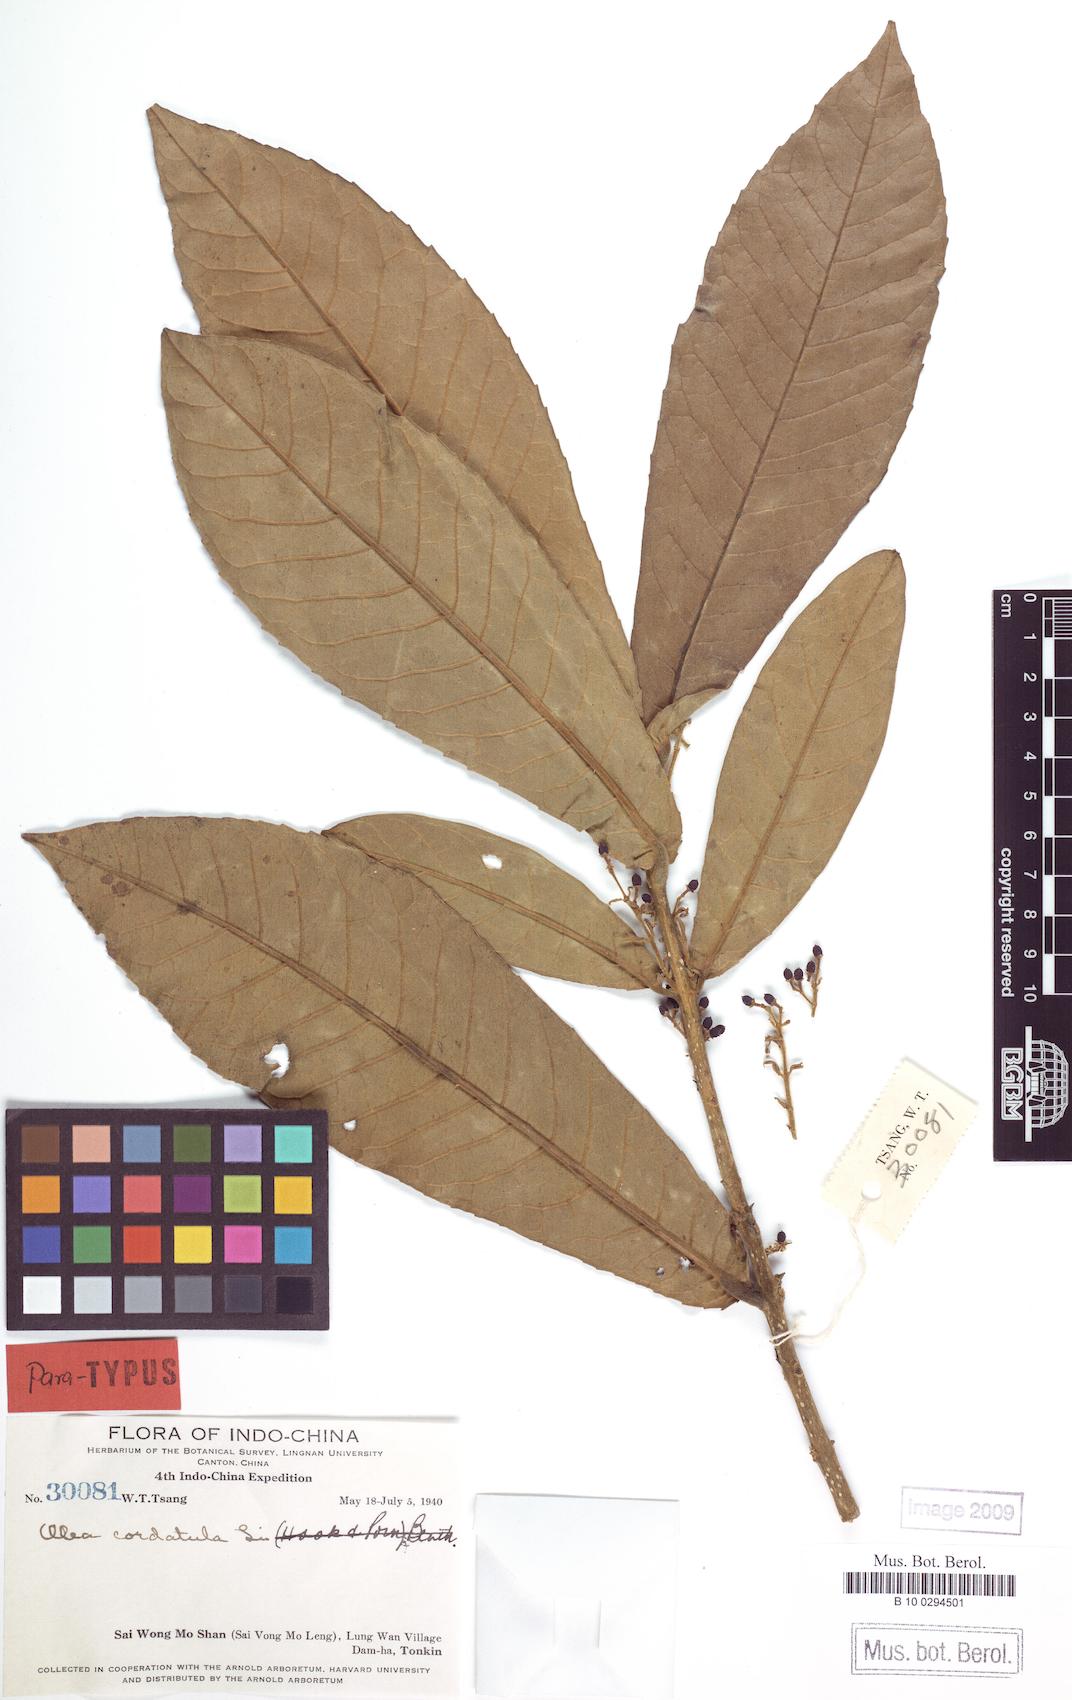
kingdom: Plantae
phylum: Tracheophyta
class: Magnoliopsida
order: Lamiales
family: Oleaceae
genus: Tetrapilus
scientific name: Tetrapilus cordatulus
